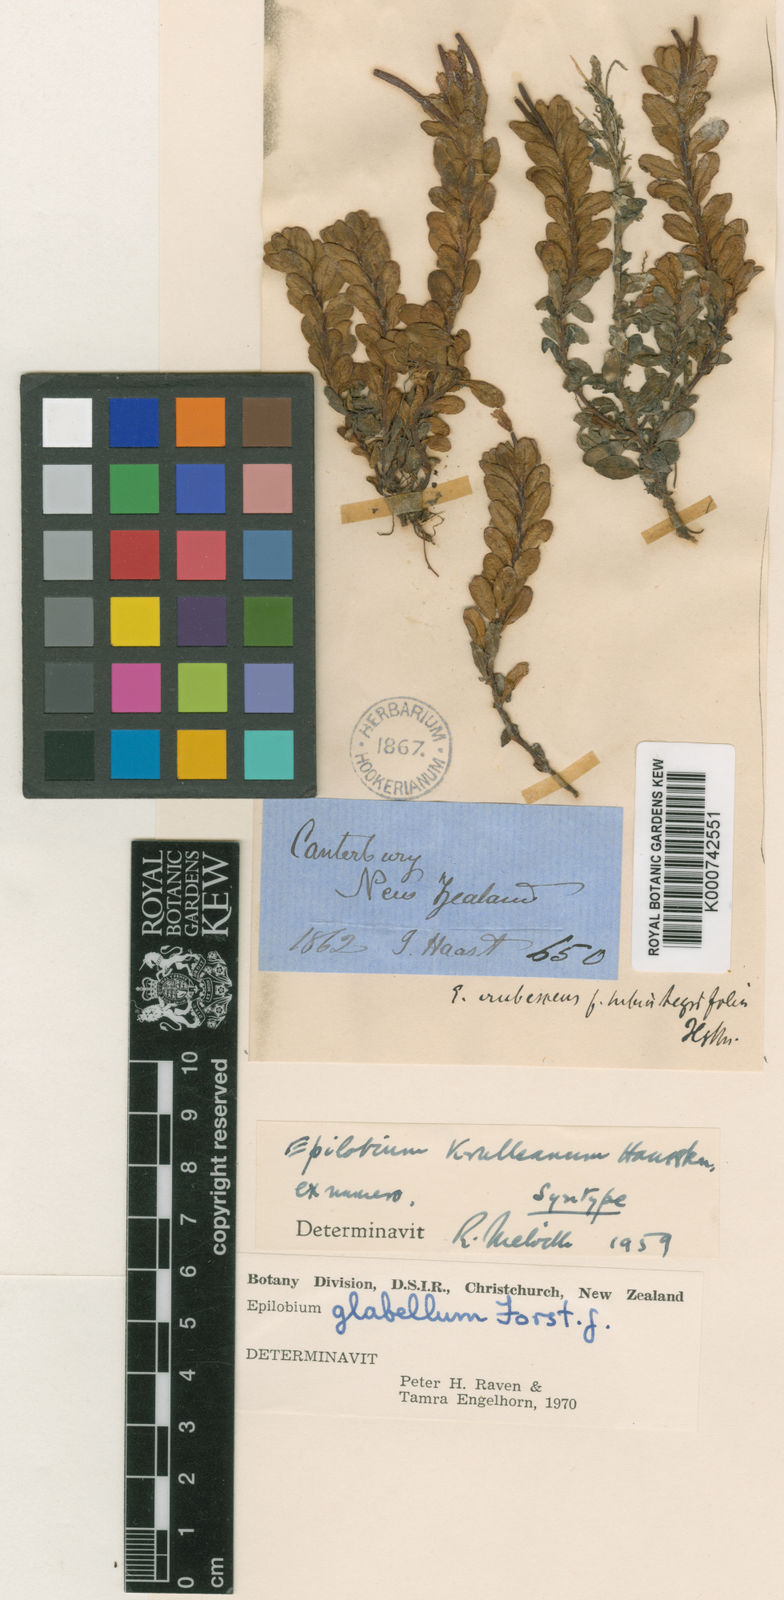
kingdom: Plantae
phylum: Tracheophyta
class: Magnoliopsida
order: Myrtales
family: Onagraceae
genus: Epilobium
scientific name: Epilobium glabellum
